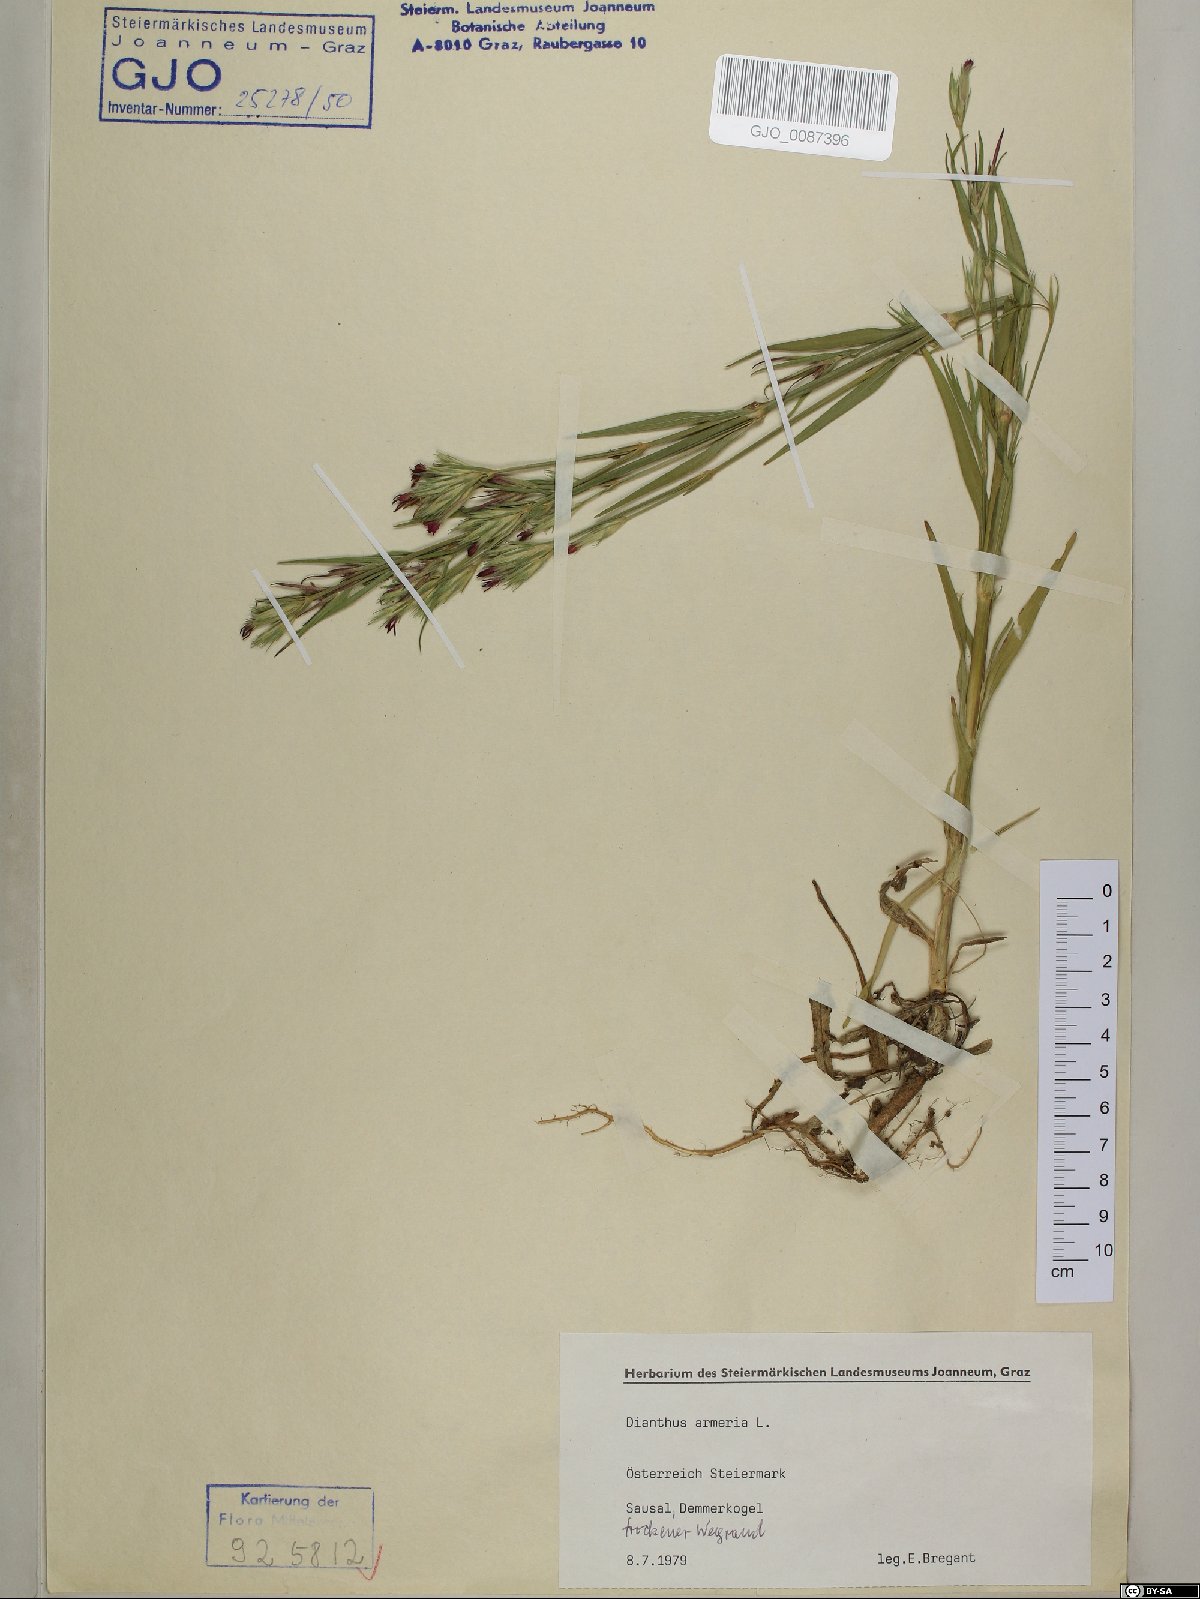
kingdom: Plantae
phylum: Tracheophyta
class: Magnoliopsida
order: Caryophyllales
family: Caryophyllaceae
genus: Dianthus
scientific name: Dianthus armeria
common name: Deptford pink
